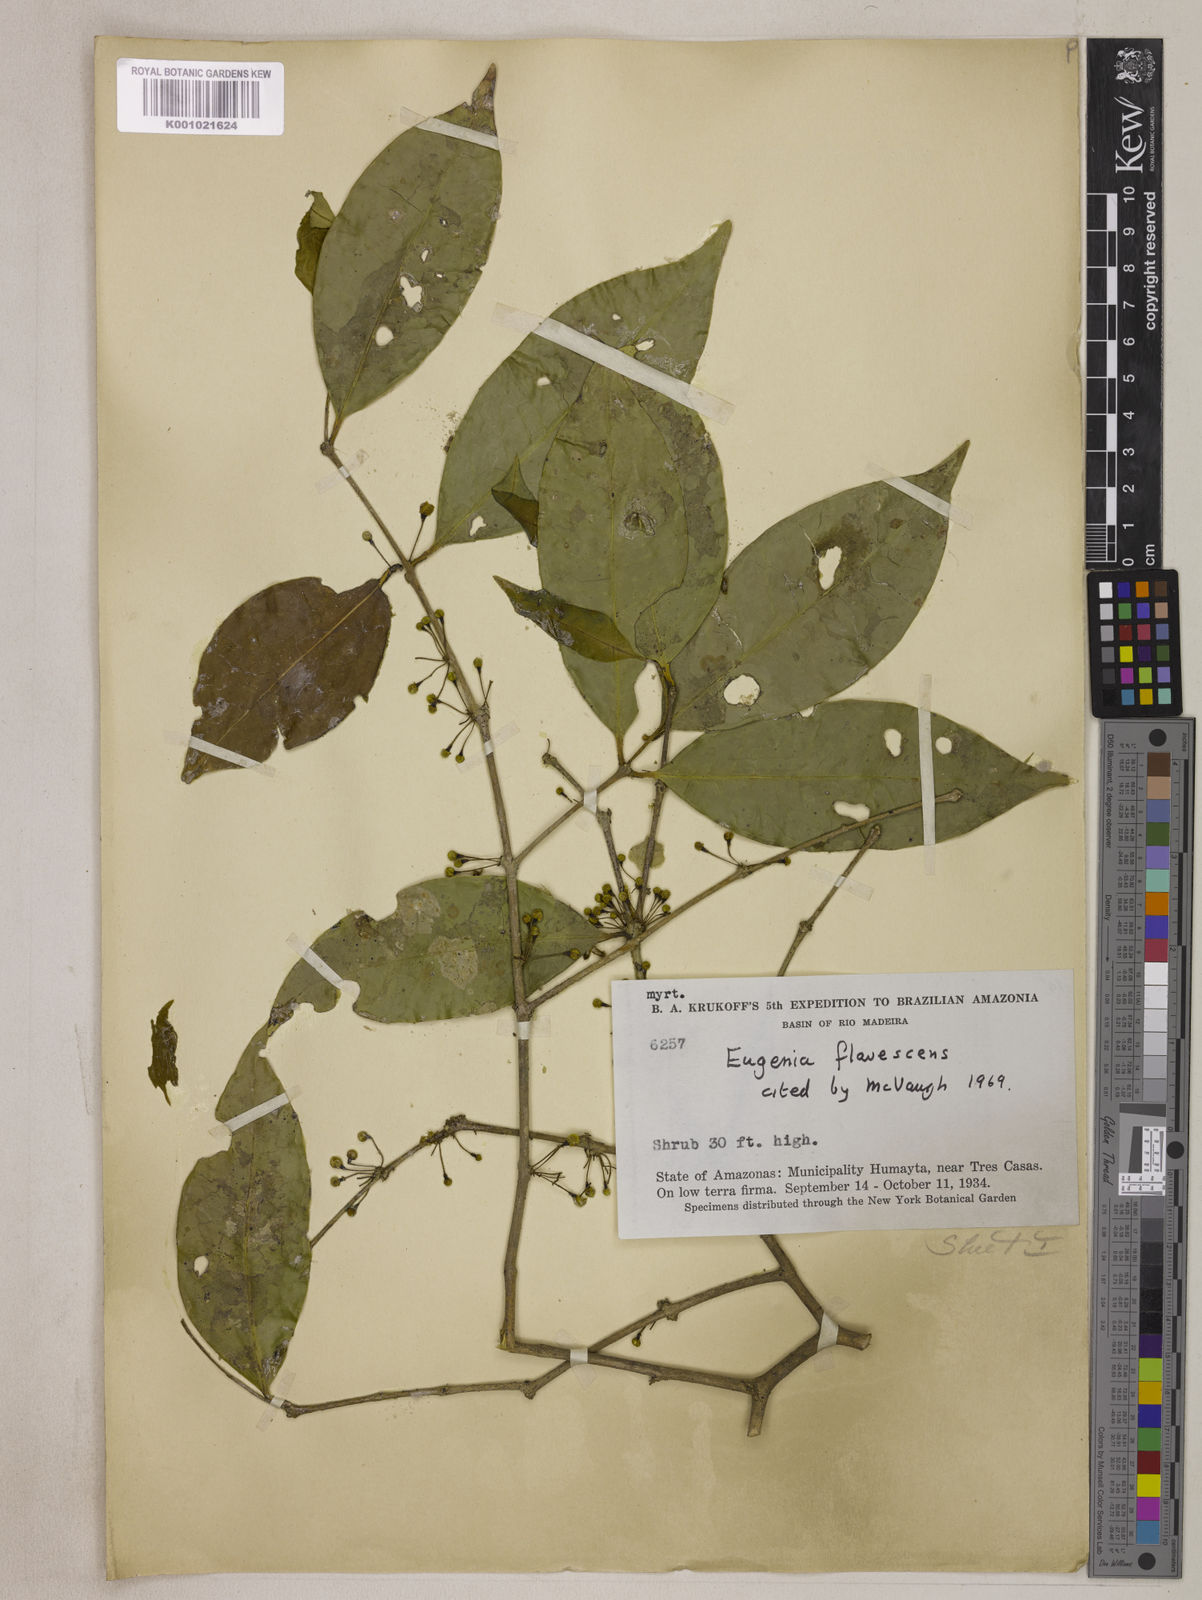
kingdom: Plantae
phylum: Tracheophyta
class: Magnoliopsida
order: Myrtales
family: Myrtaceae
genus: Eugenia
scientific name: Eugenia flavescens
